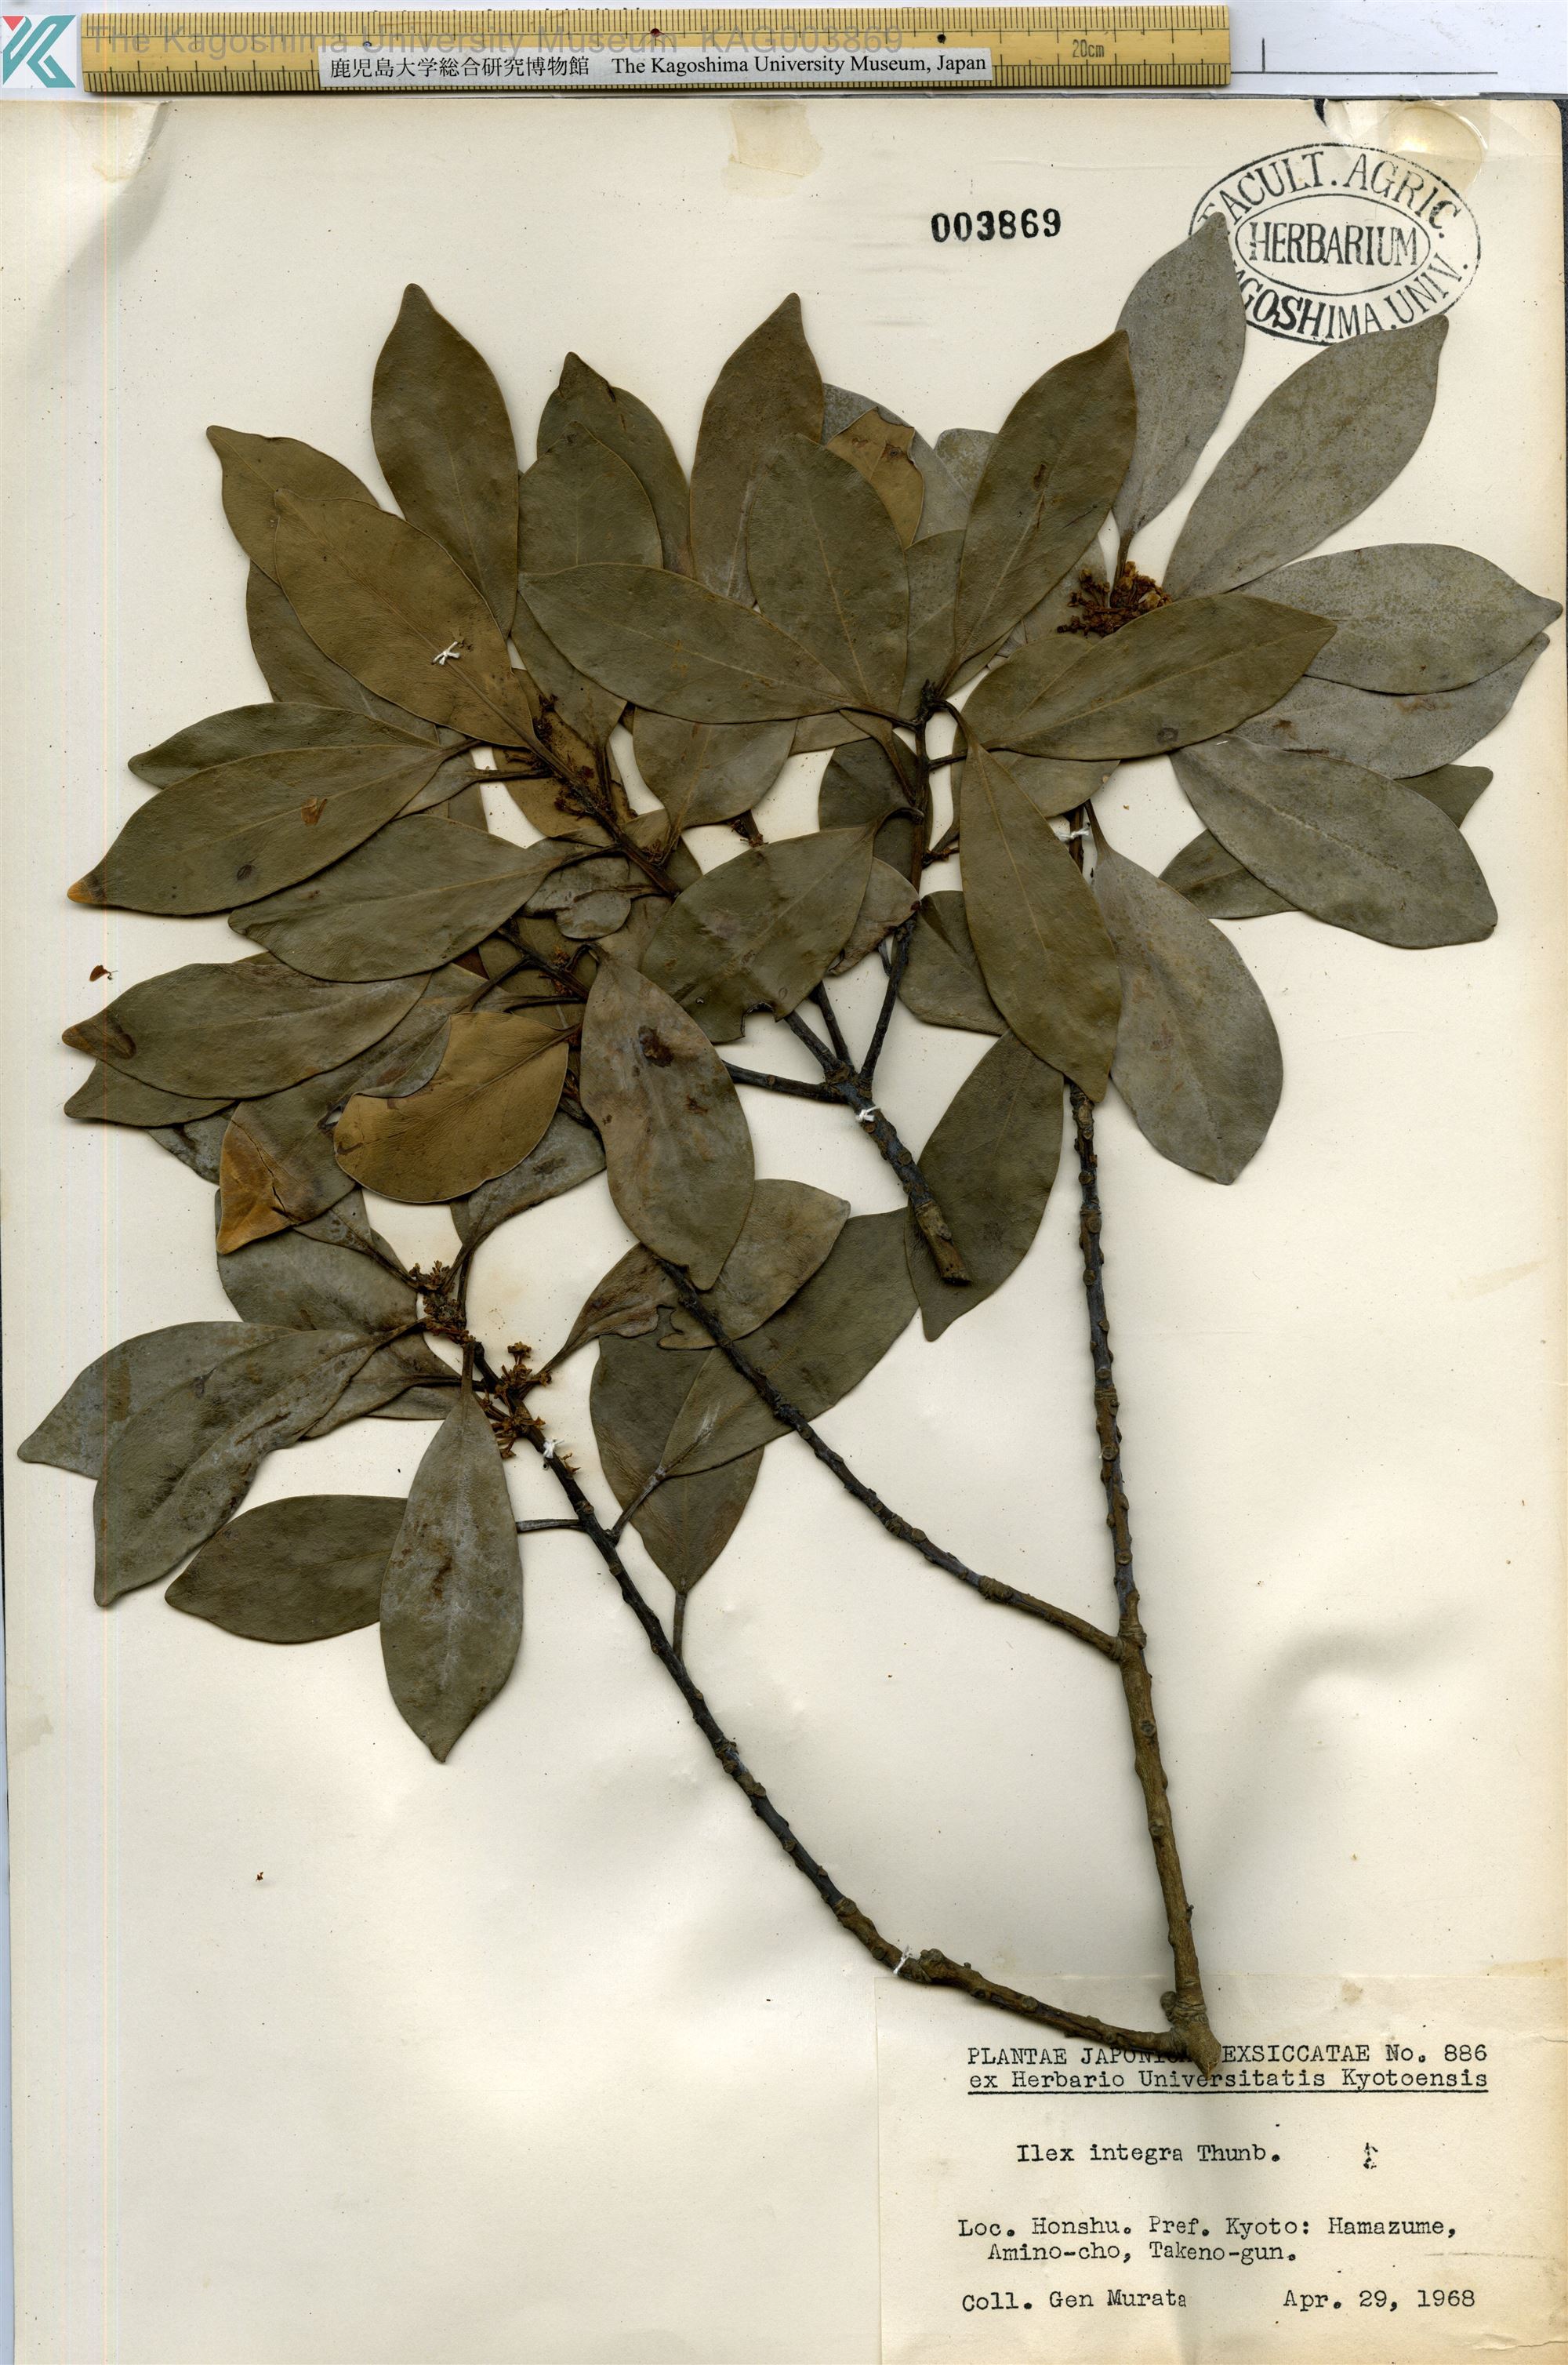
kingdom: Plantae
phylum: Tracheophyta
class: Magnoliopsida
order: Aquifoliales
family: Aquifoliaceae
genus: Ilex
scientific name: Ilex integra
